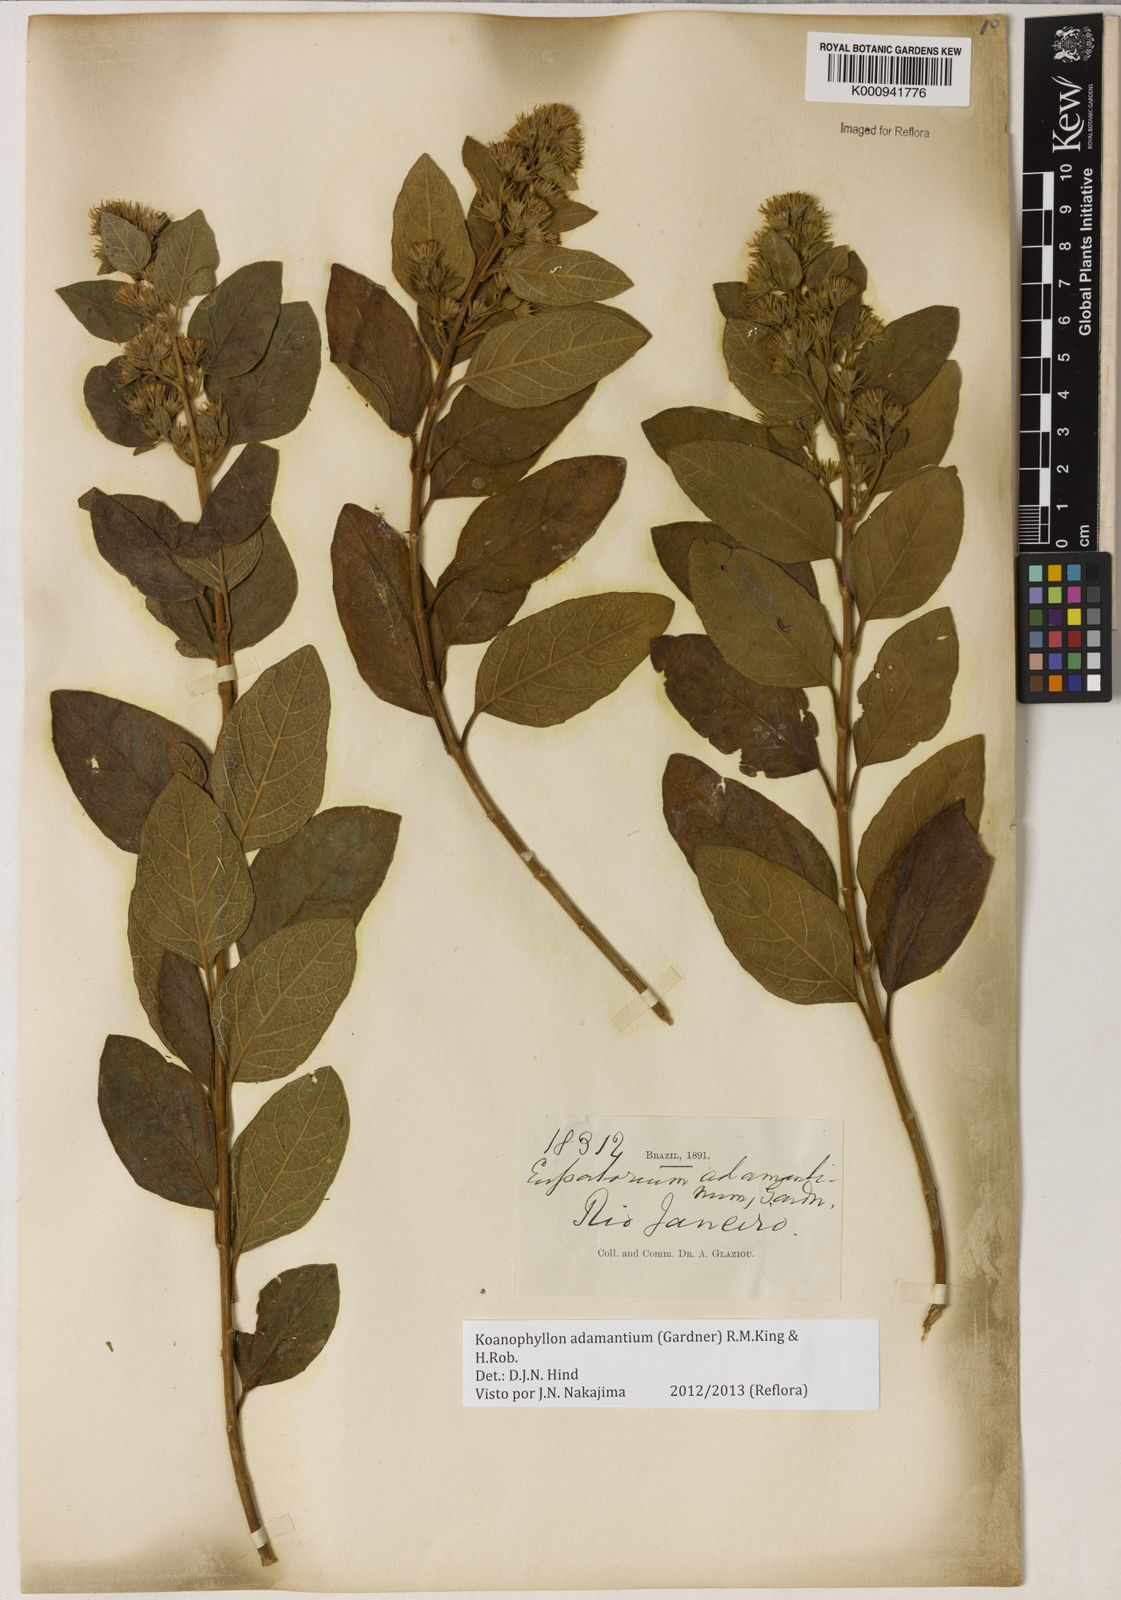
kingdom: Plantae
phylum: Tracheophyta
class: Magnoliopsida
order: Asterales
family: Asteraceae
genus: Koanophyllon
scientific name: Koanophyllon adamantium
